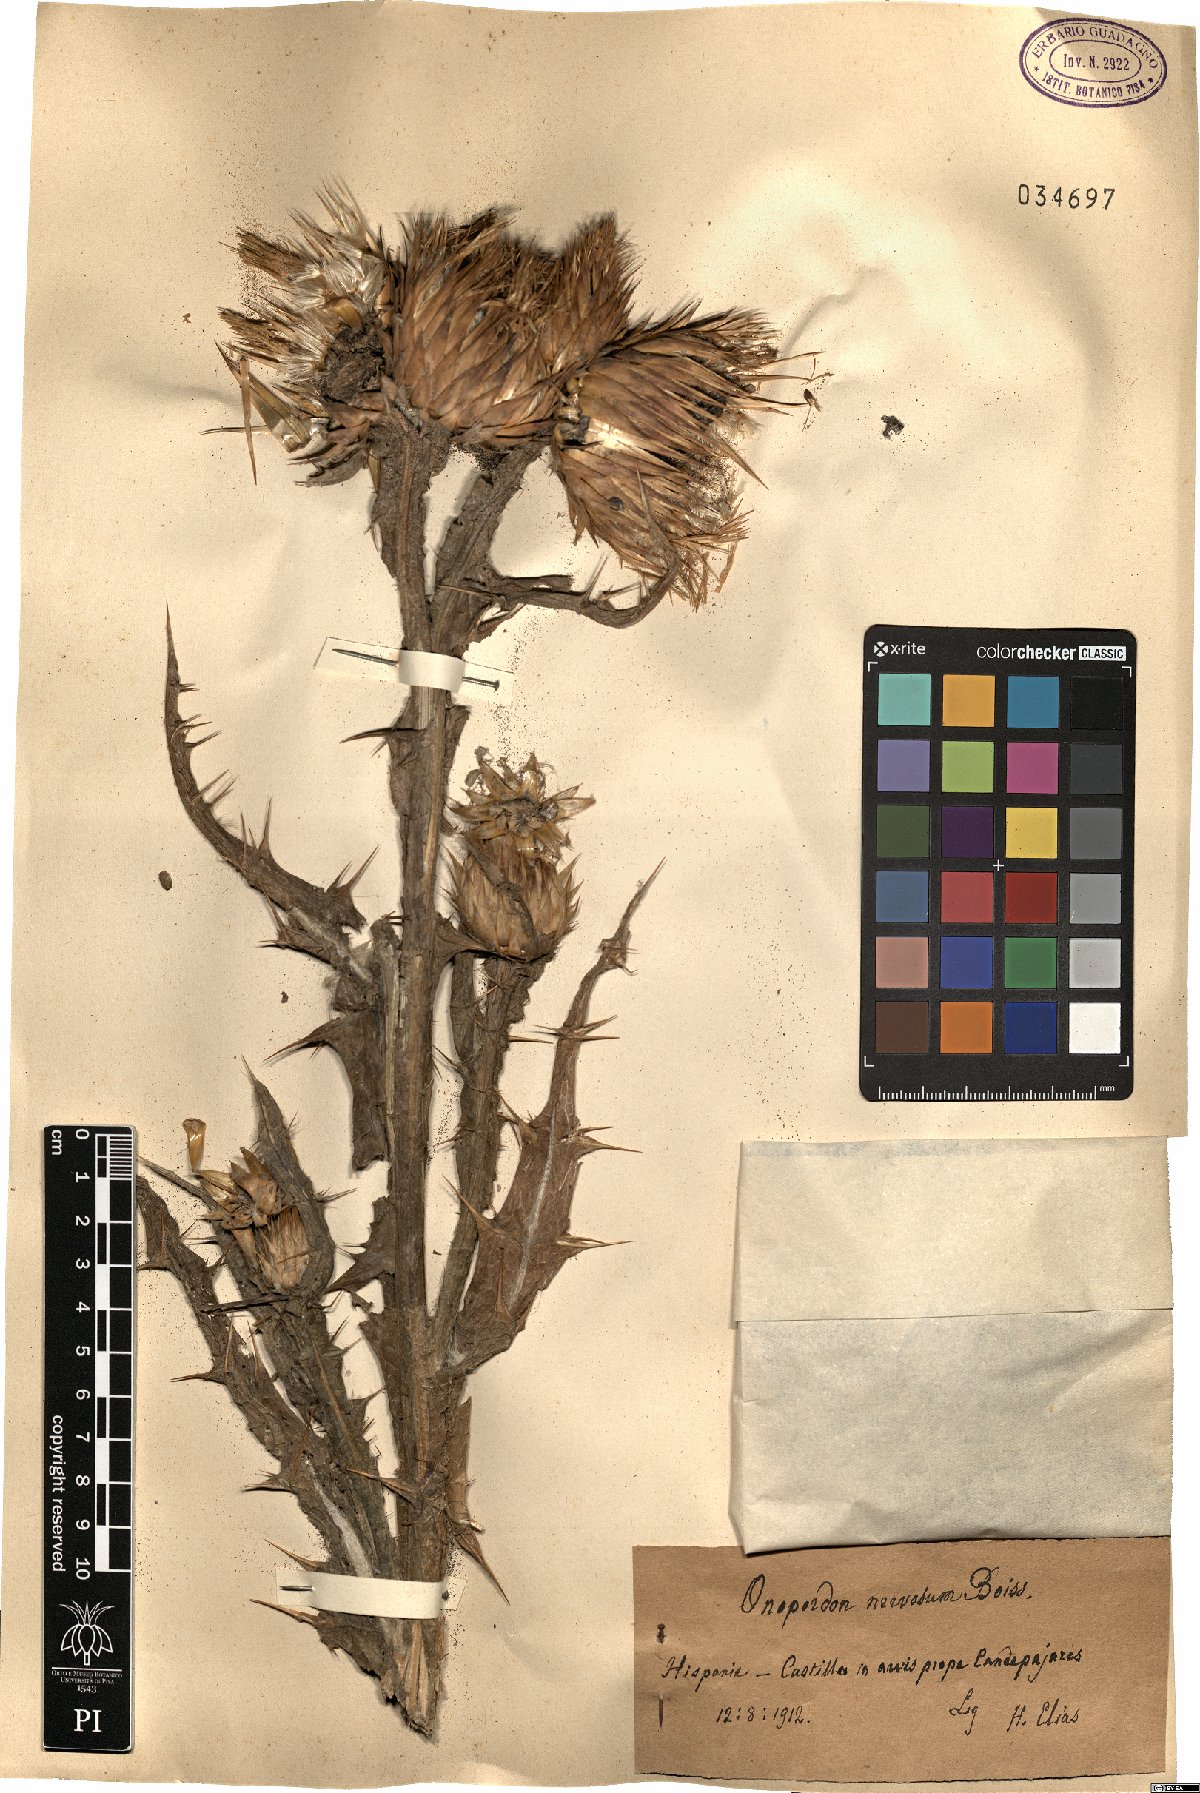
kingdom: Plantae
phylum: Tracheophyta
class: Magnoliopsida
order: Asterales
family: Asteraceae
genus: Onopordum
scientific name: Onopordum nervosum
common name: Reticulate thistle
